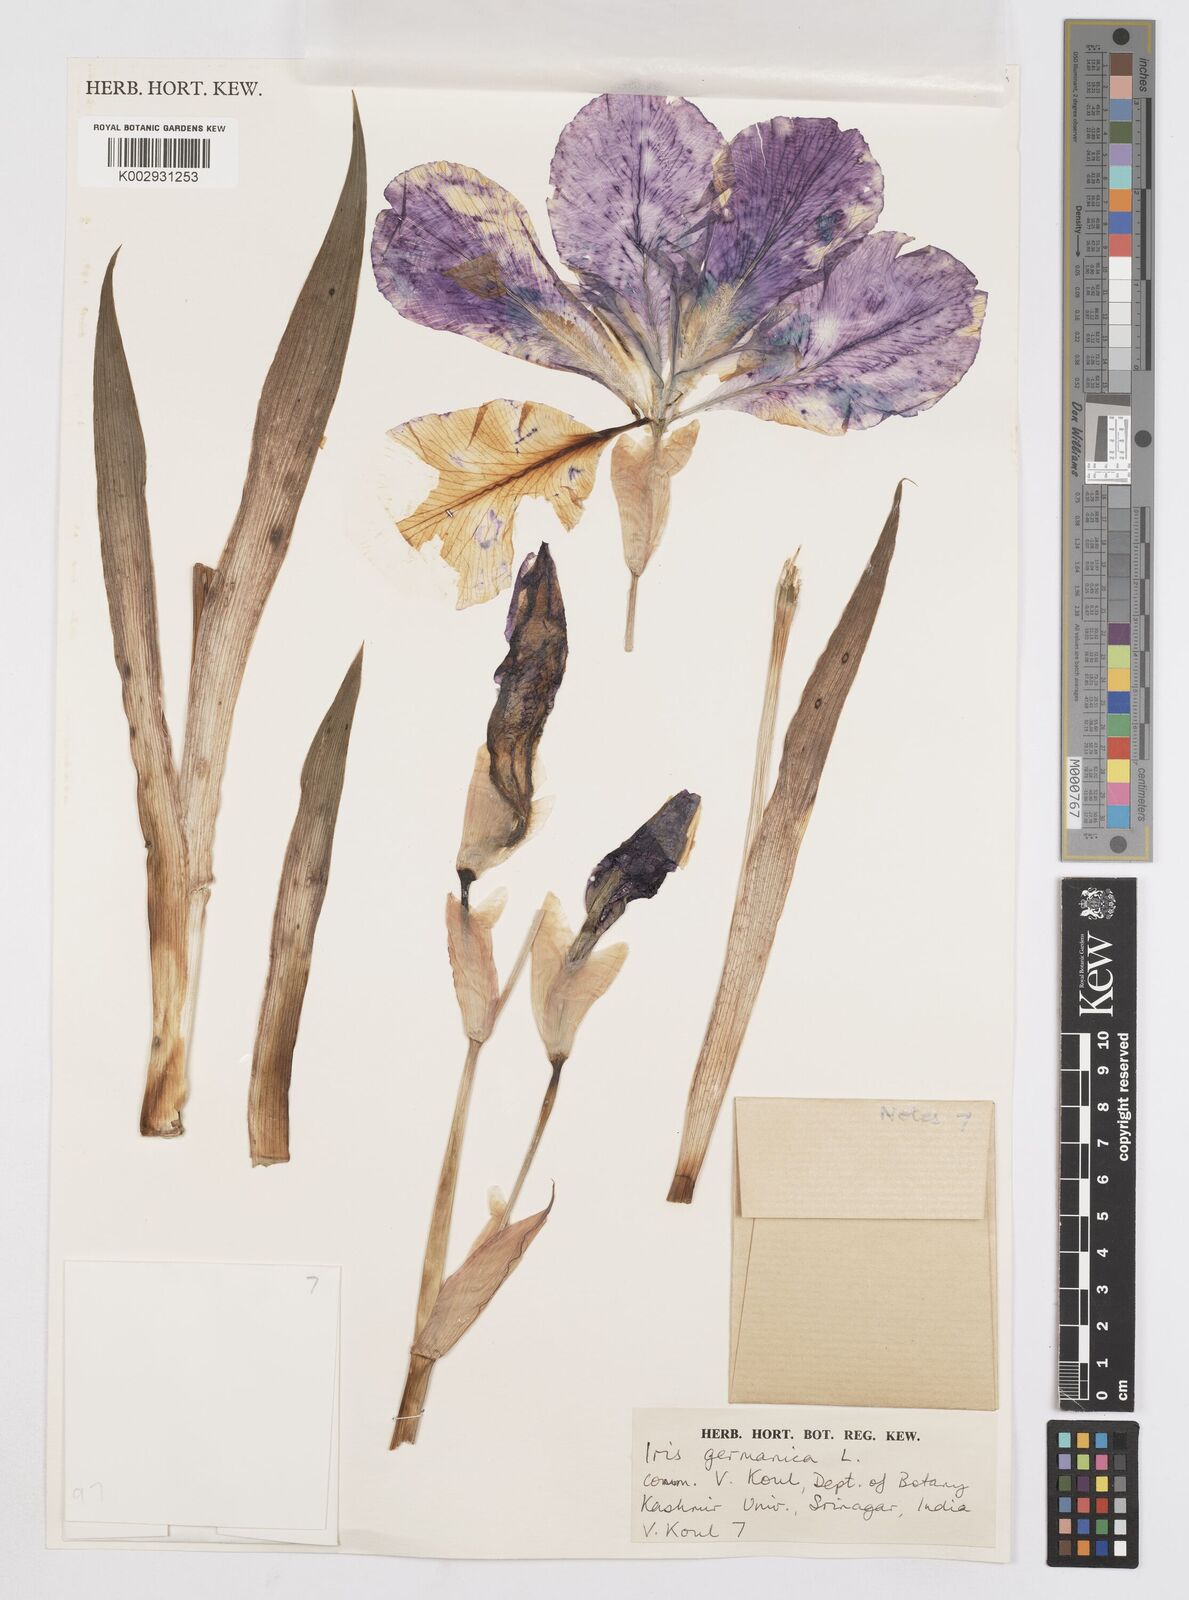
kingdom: Plantae
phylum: Tracheophyta
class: Liliopsida
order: Asparagales
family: Iridaceae
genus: Iris
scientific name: Iris germanica
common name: German iris
